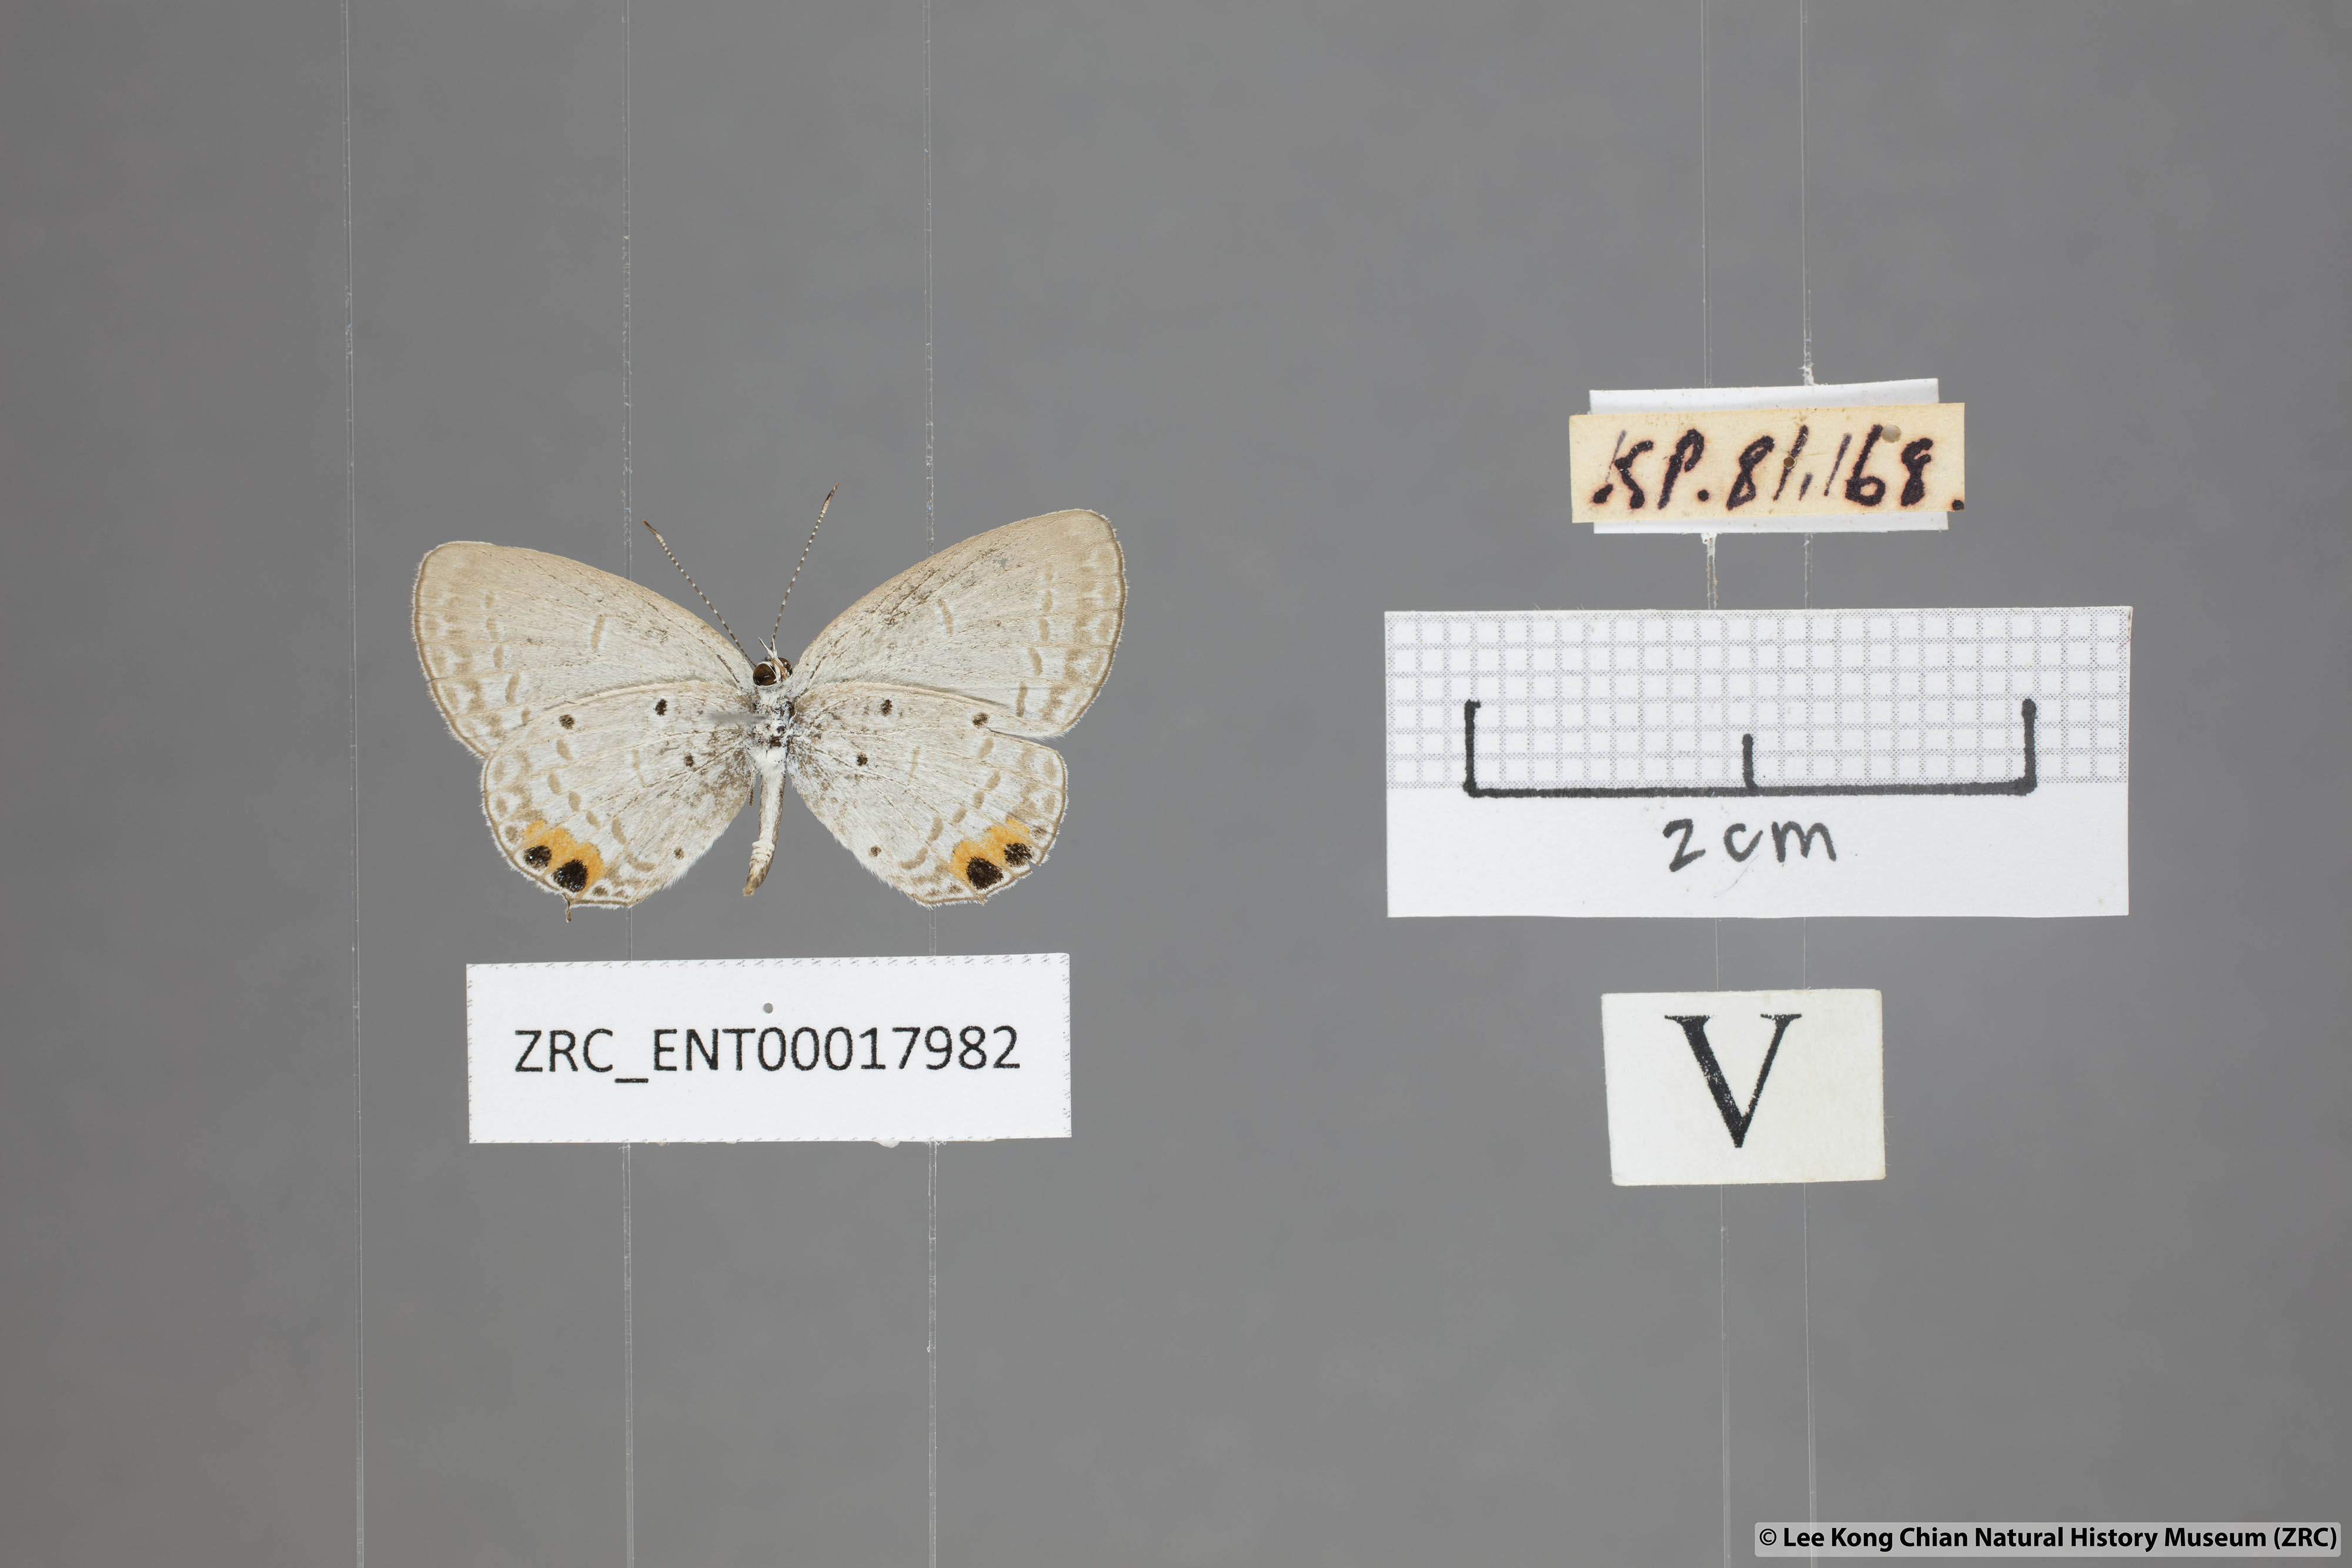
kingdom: Animalia
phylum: Arthropoda
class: Insecta
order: Lepidoptera
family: Lycaenidae
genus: Everes
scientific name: Everes lacturnus
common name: Orange-tipped pea-blue
